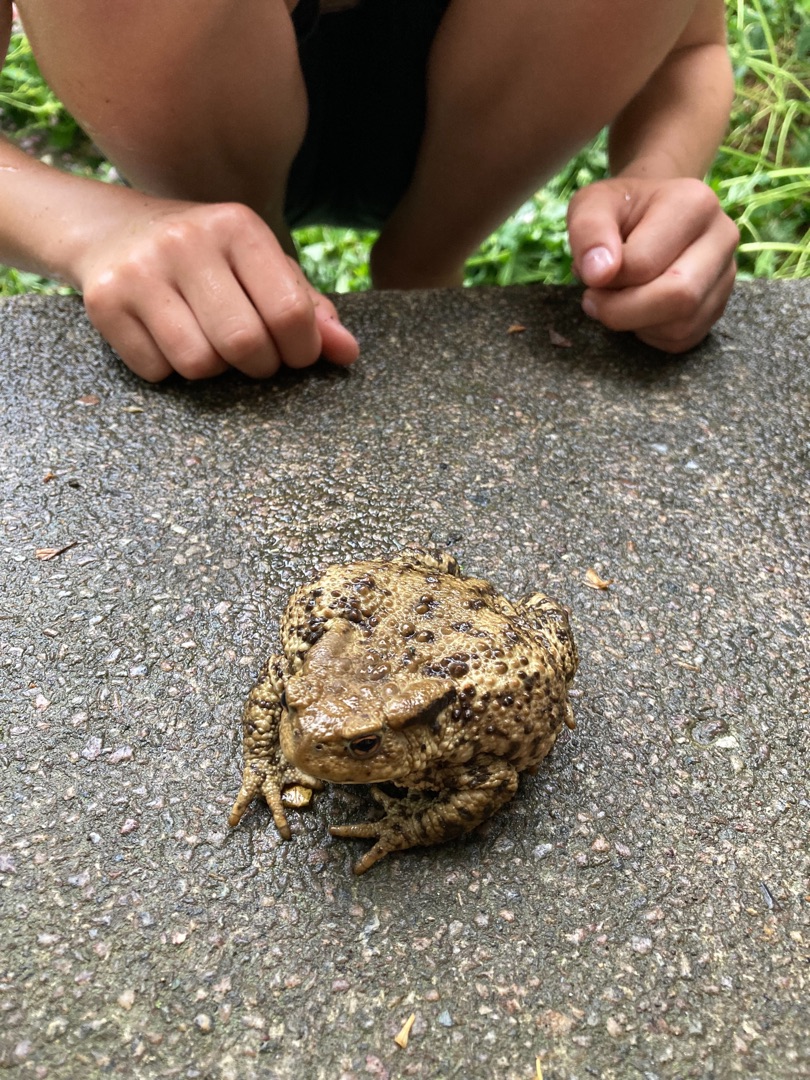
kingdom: Animalia
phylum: Chordata
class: Amphibia
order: Anura
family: Bufonidae
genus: Bufo
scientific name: Bufo bufo
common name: Skrubtudse
